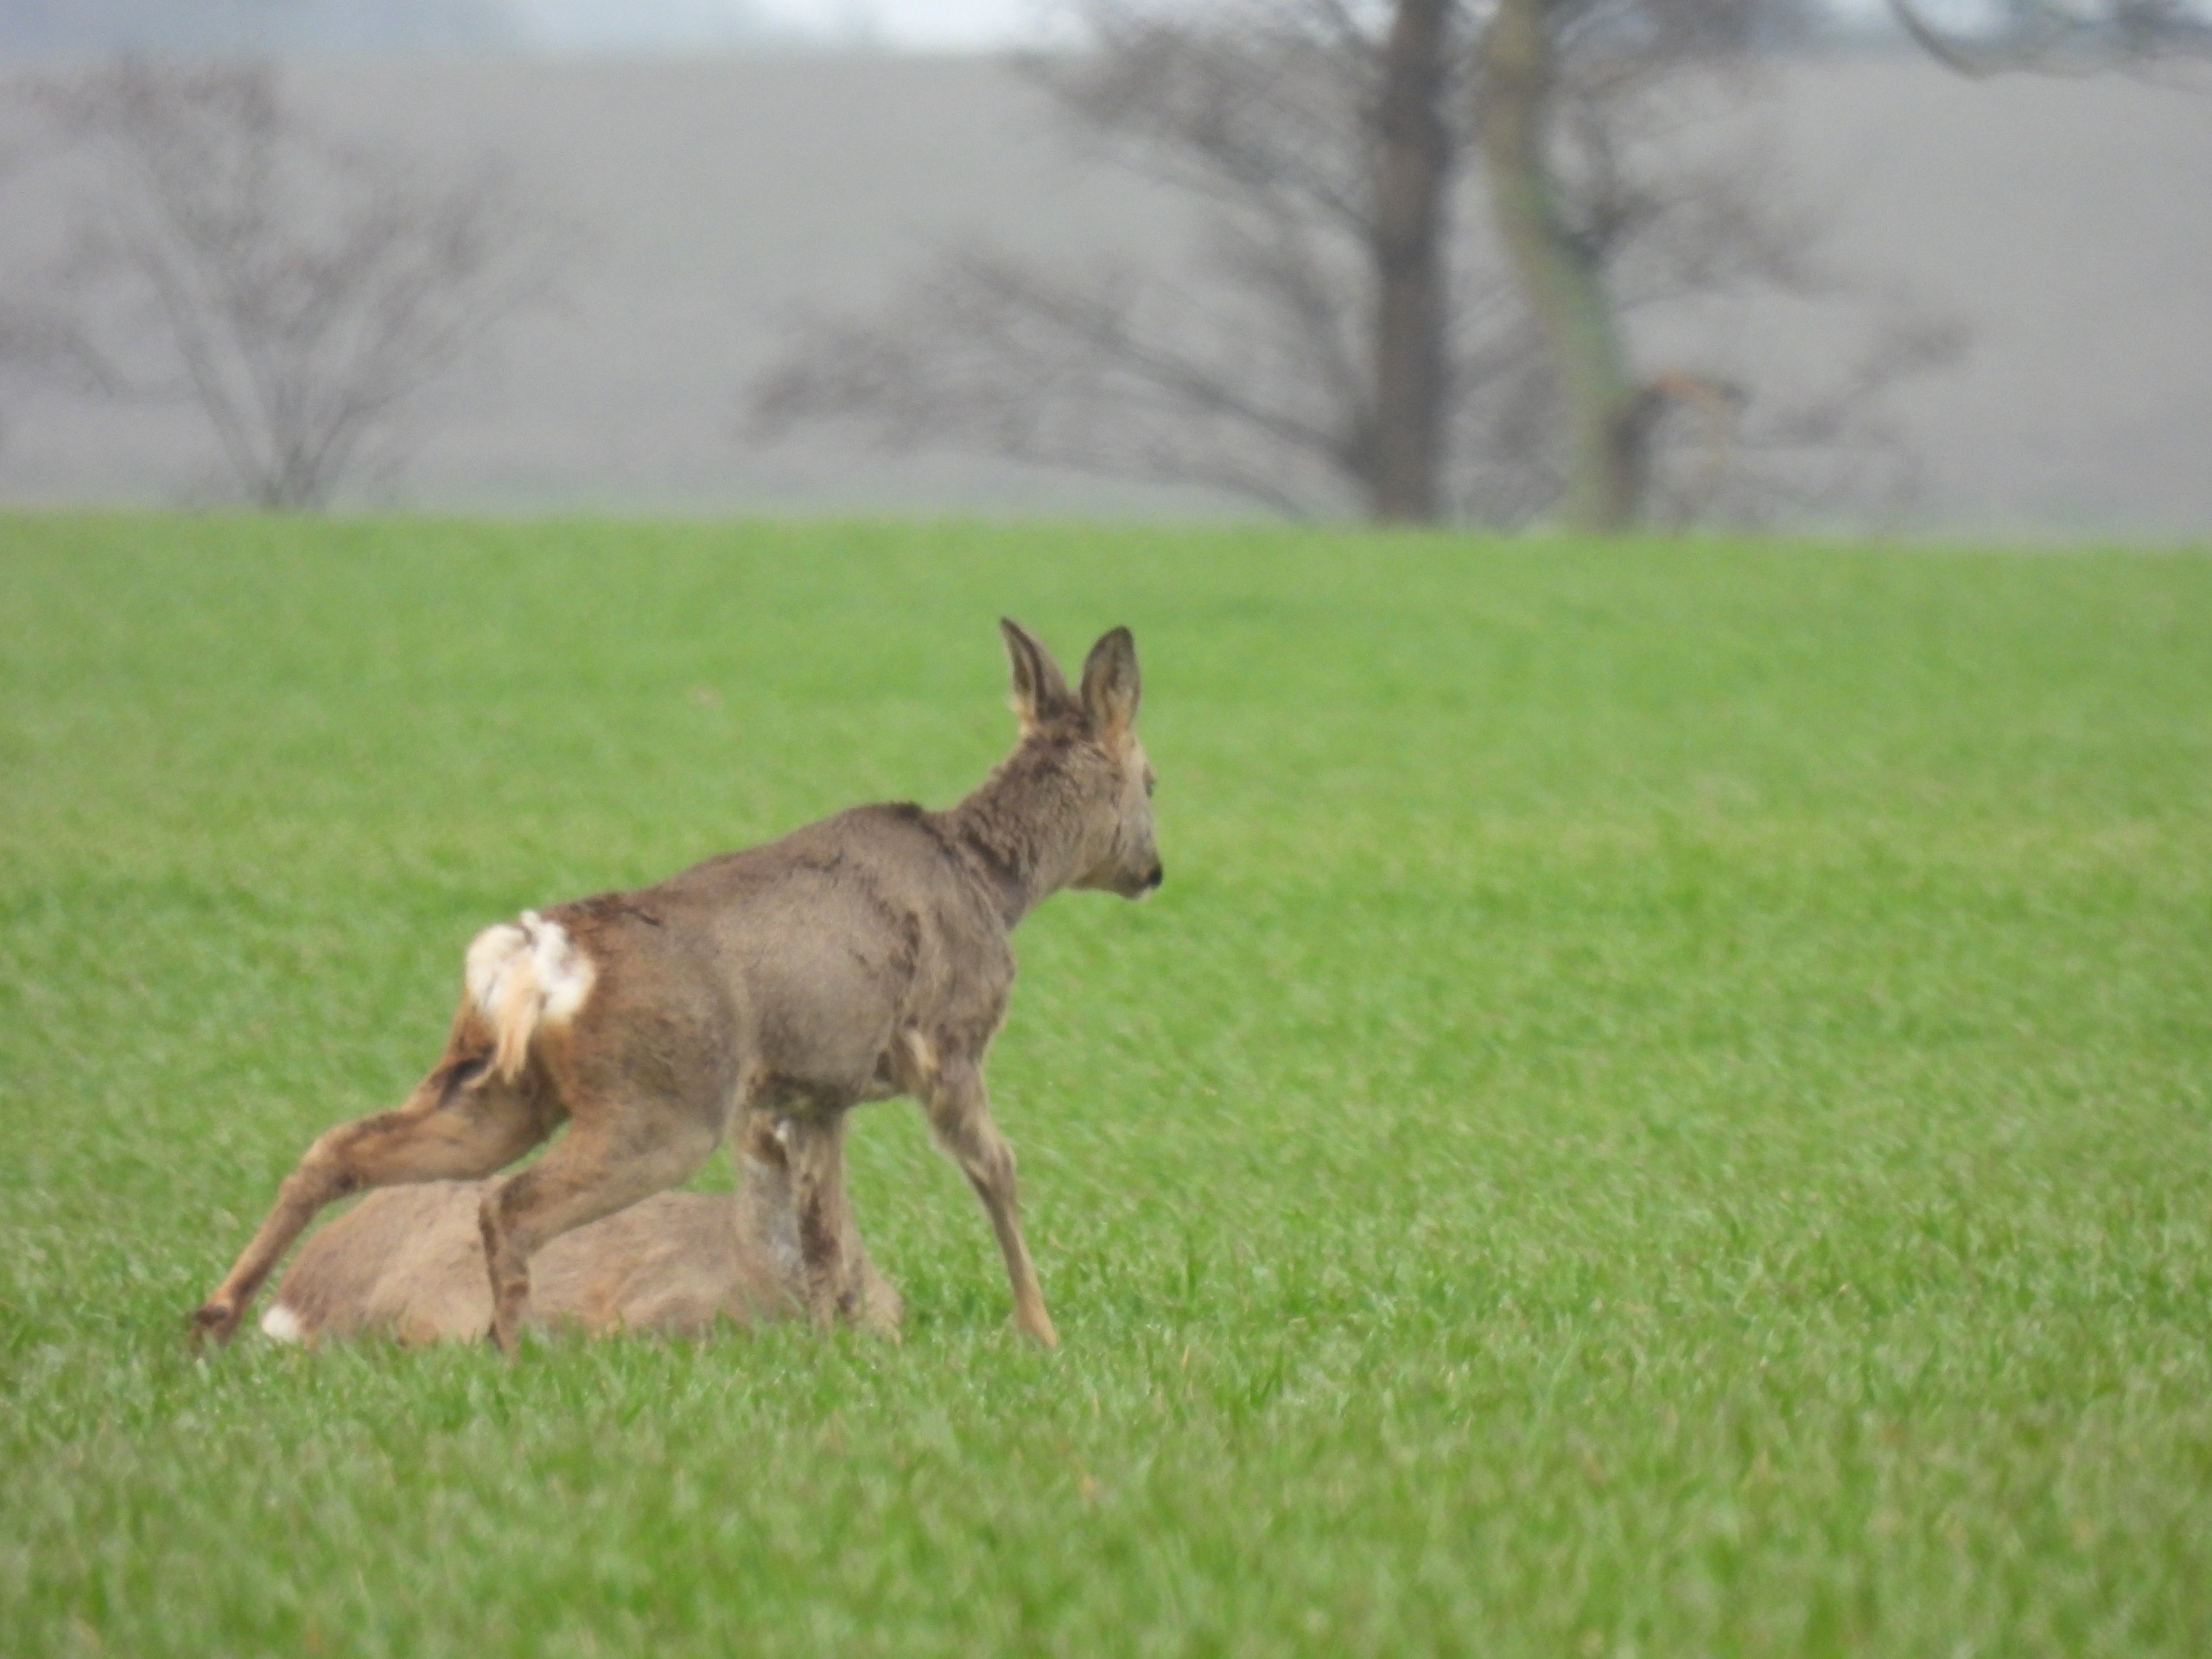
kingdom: Animalia
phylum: Chordata
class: Mammalia
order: Artiodactyla
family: Cervidae
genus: Capreolus
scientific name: Capreolus capreolus
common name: Rådyr
